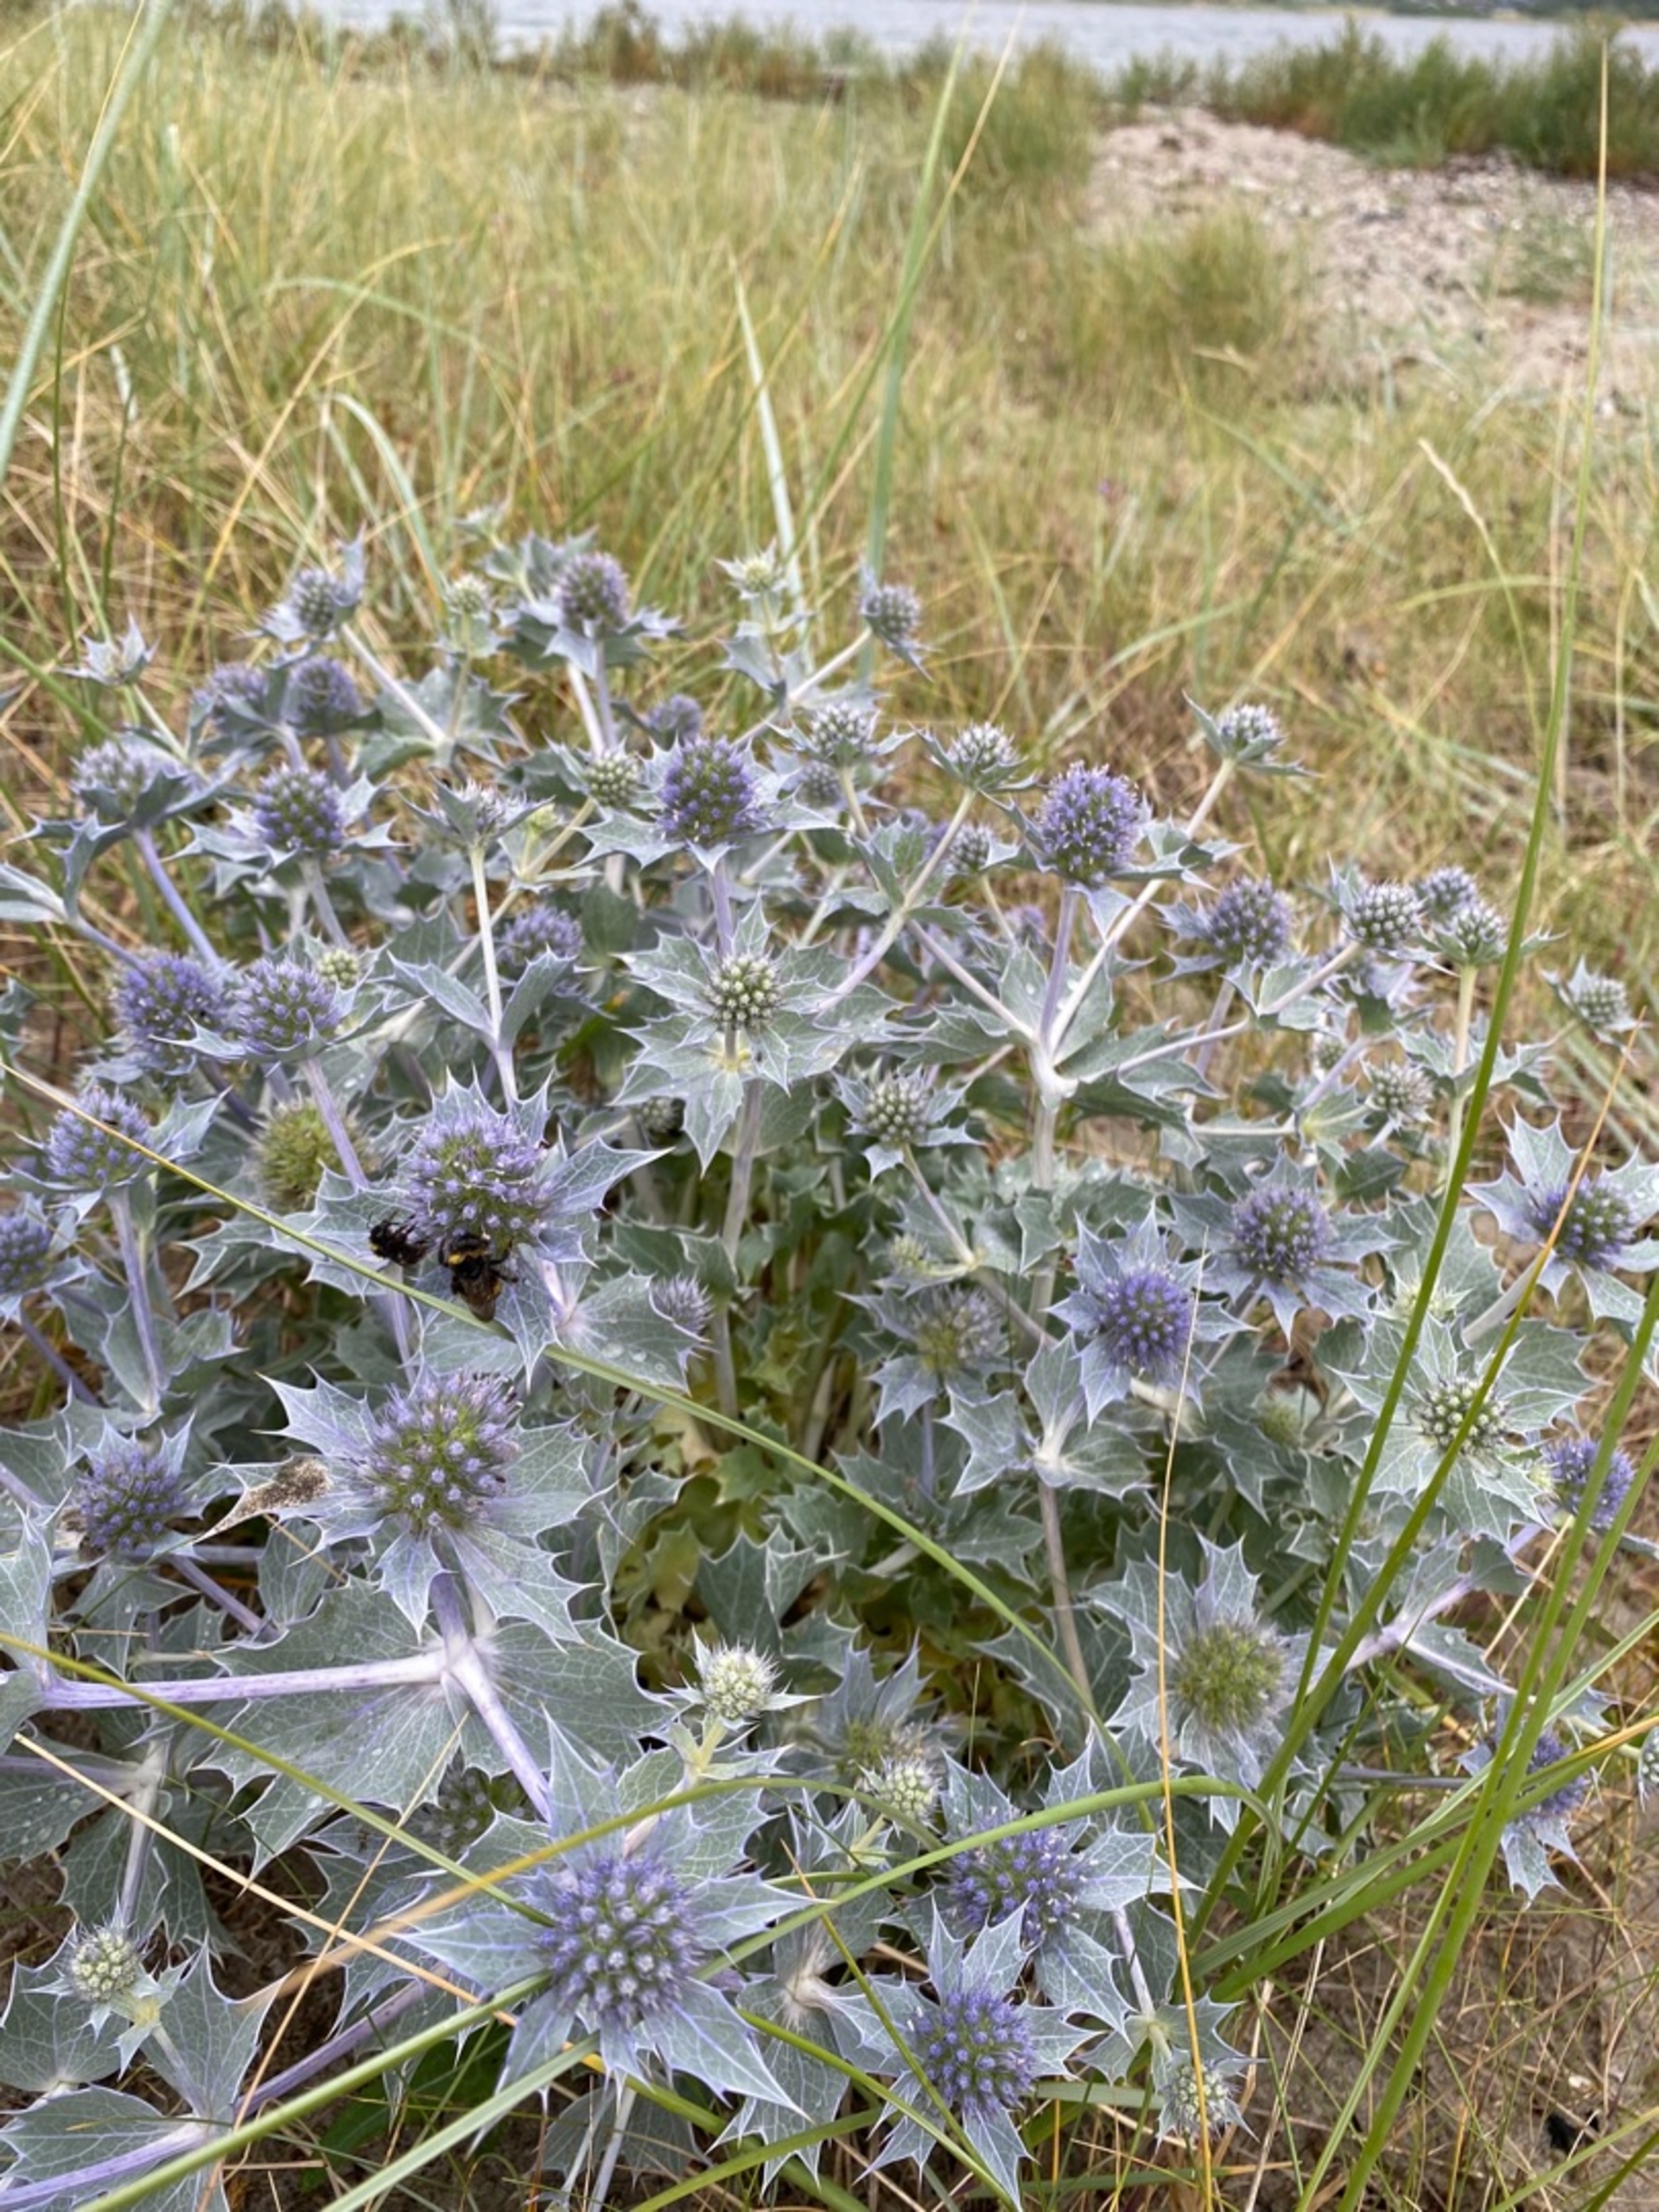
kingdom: Plantae
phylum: Tracheophyta
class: Magnoliopsida
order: Apiales
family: Apiaceae
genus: Eryngium
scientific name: Eryngium maritimum
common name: Strand-mandstro
